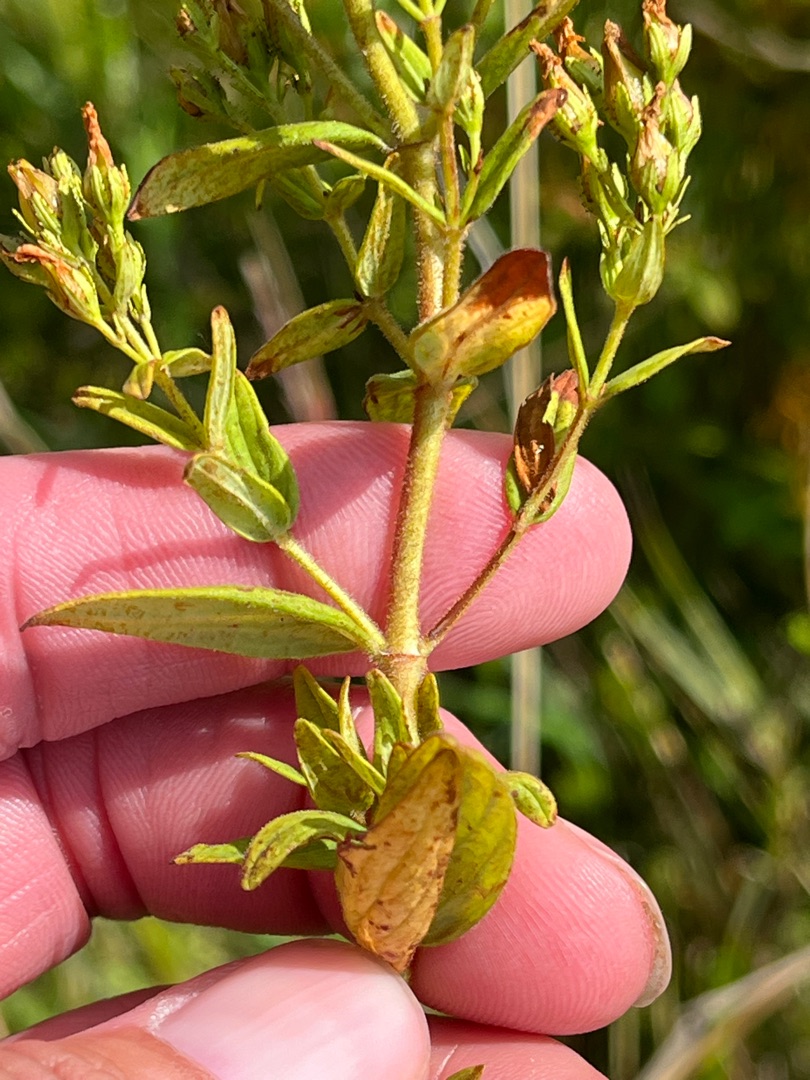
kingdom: Plantae
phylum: Tracheophyta
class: Magnoliopsida
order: Malpighiales
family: Hypericaceae
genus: Hypericum
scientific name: Hypericum hirsutum
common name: Lådden perikon
